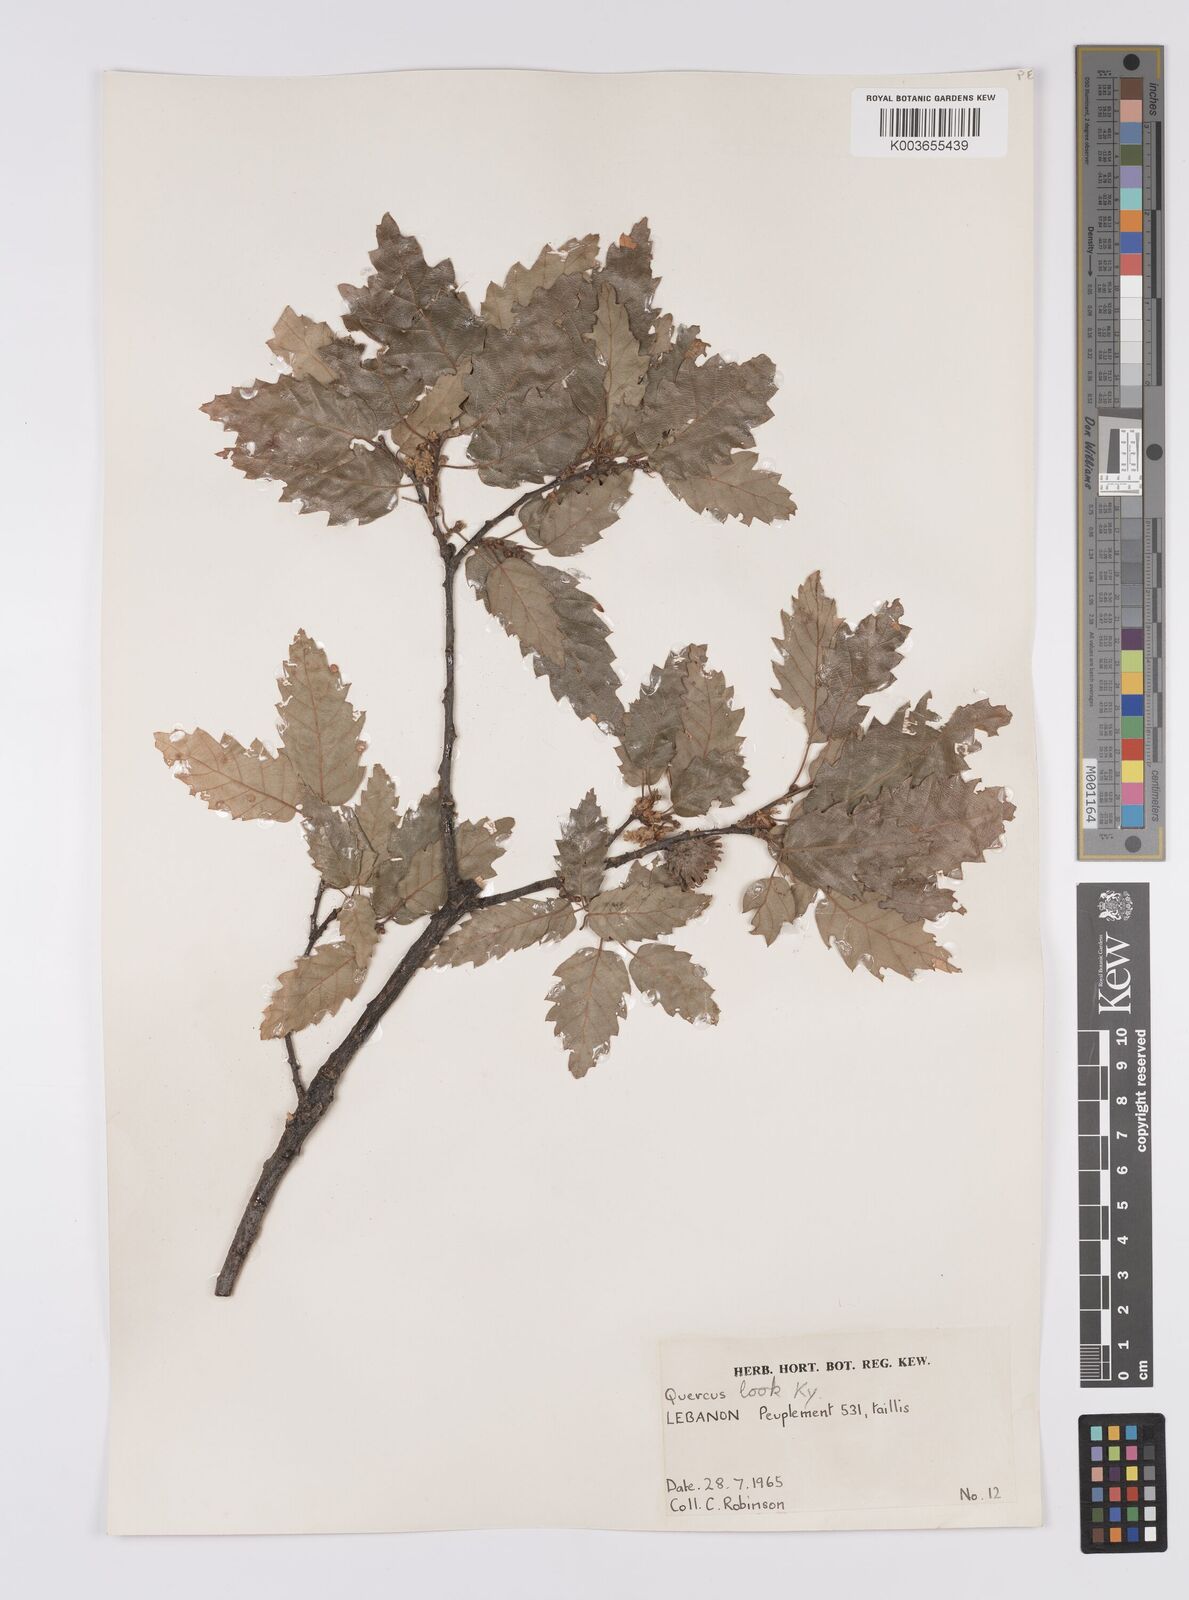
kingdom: Plantae
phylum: Tracheophyta
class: Magnoliopsida
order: Fagales
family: Fagaceae
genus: Quercus
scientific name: Quercus look
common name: Look oak
